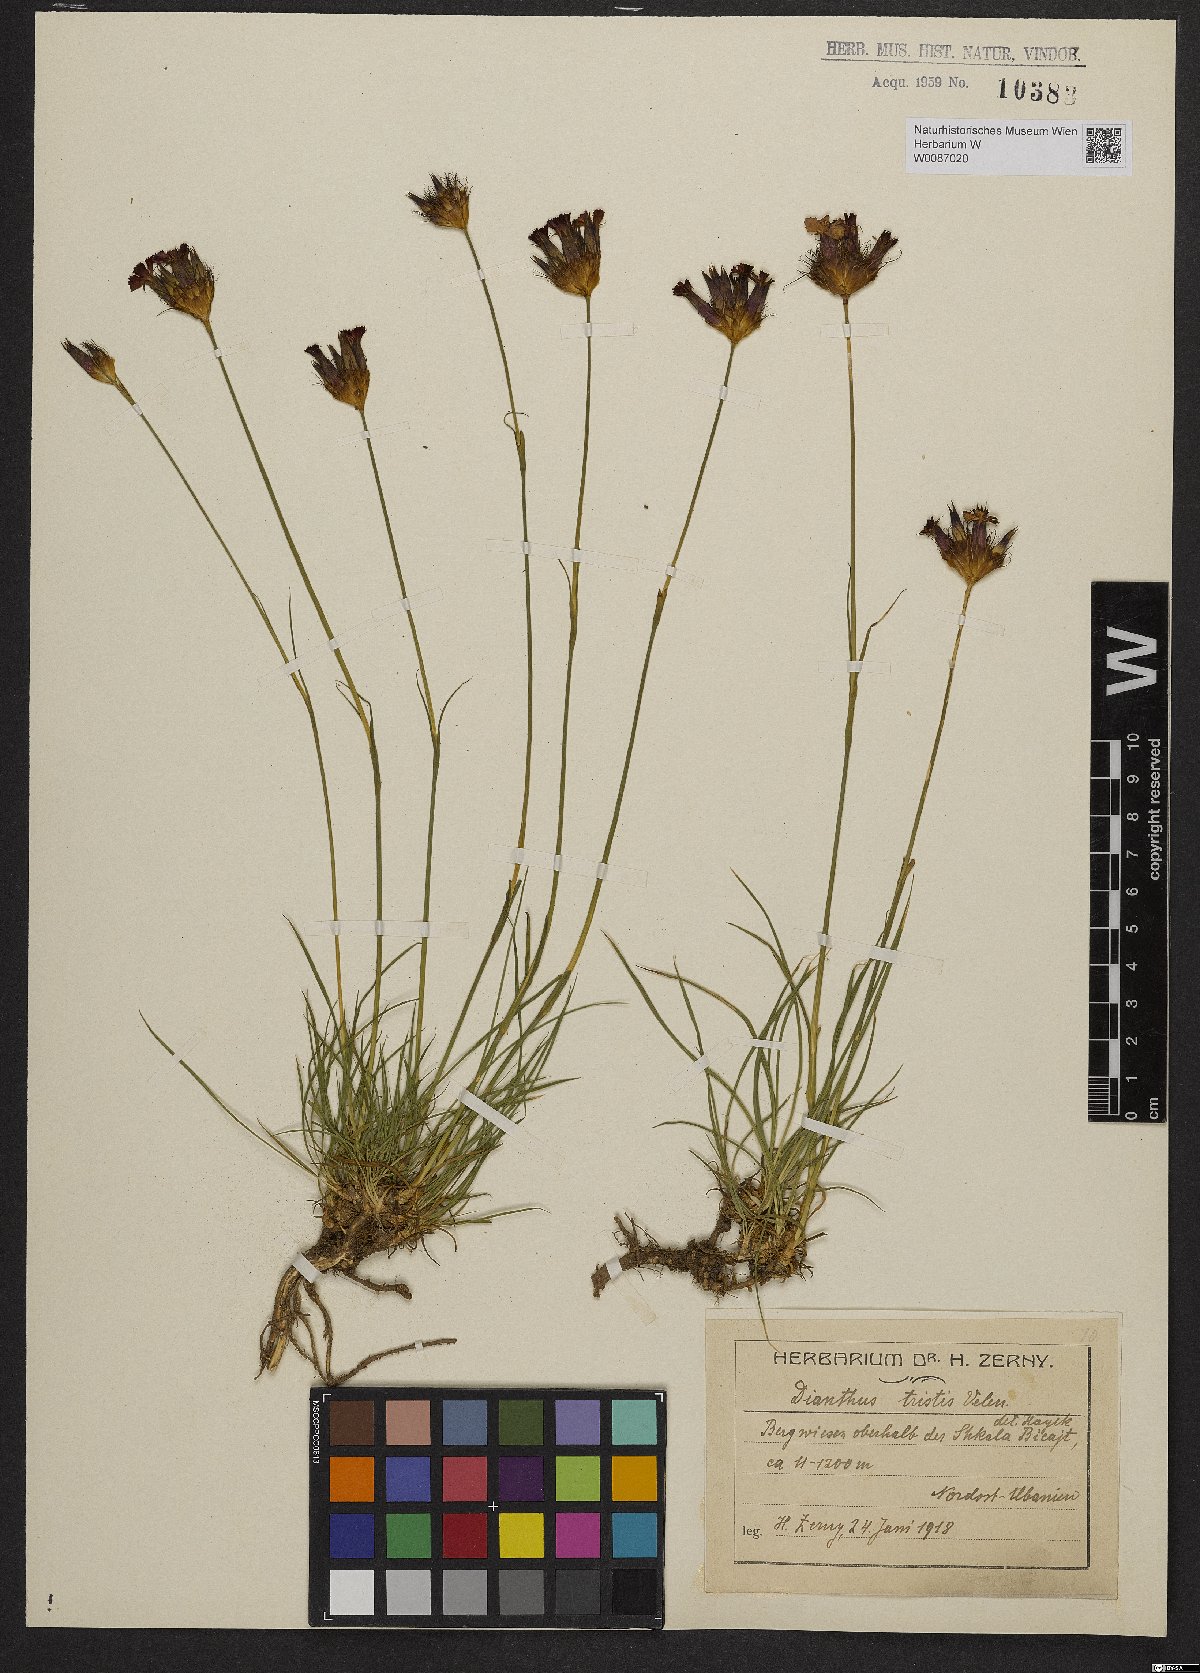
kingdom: Plantae
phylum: Tracheophyta
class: Magnoliopsida
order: Caryophyllales
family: Caryophyllaceae
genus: Dianthus
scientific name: Dianthus pancicii
